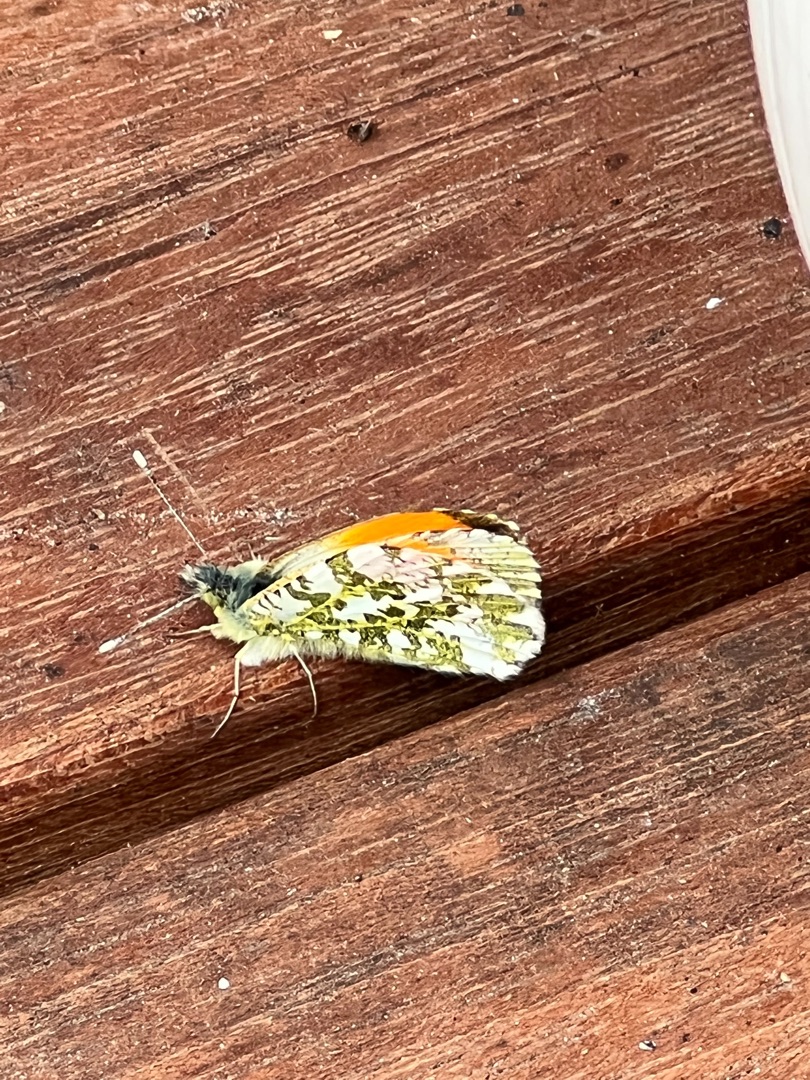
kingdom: Animalia
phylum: Arthropoda
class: Insecta
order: Lepidoptera
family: Pieridae
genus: Anthocharis
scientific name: Anthocharis cardamines
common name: Aurora
